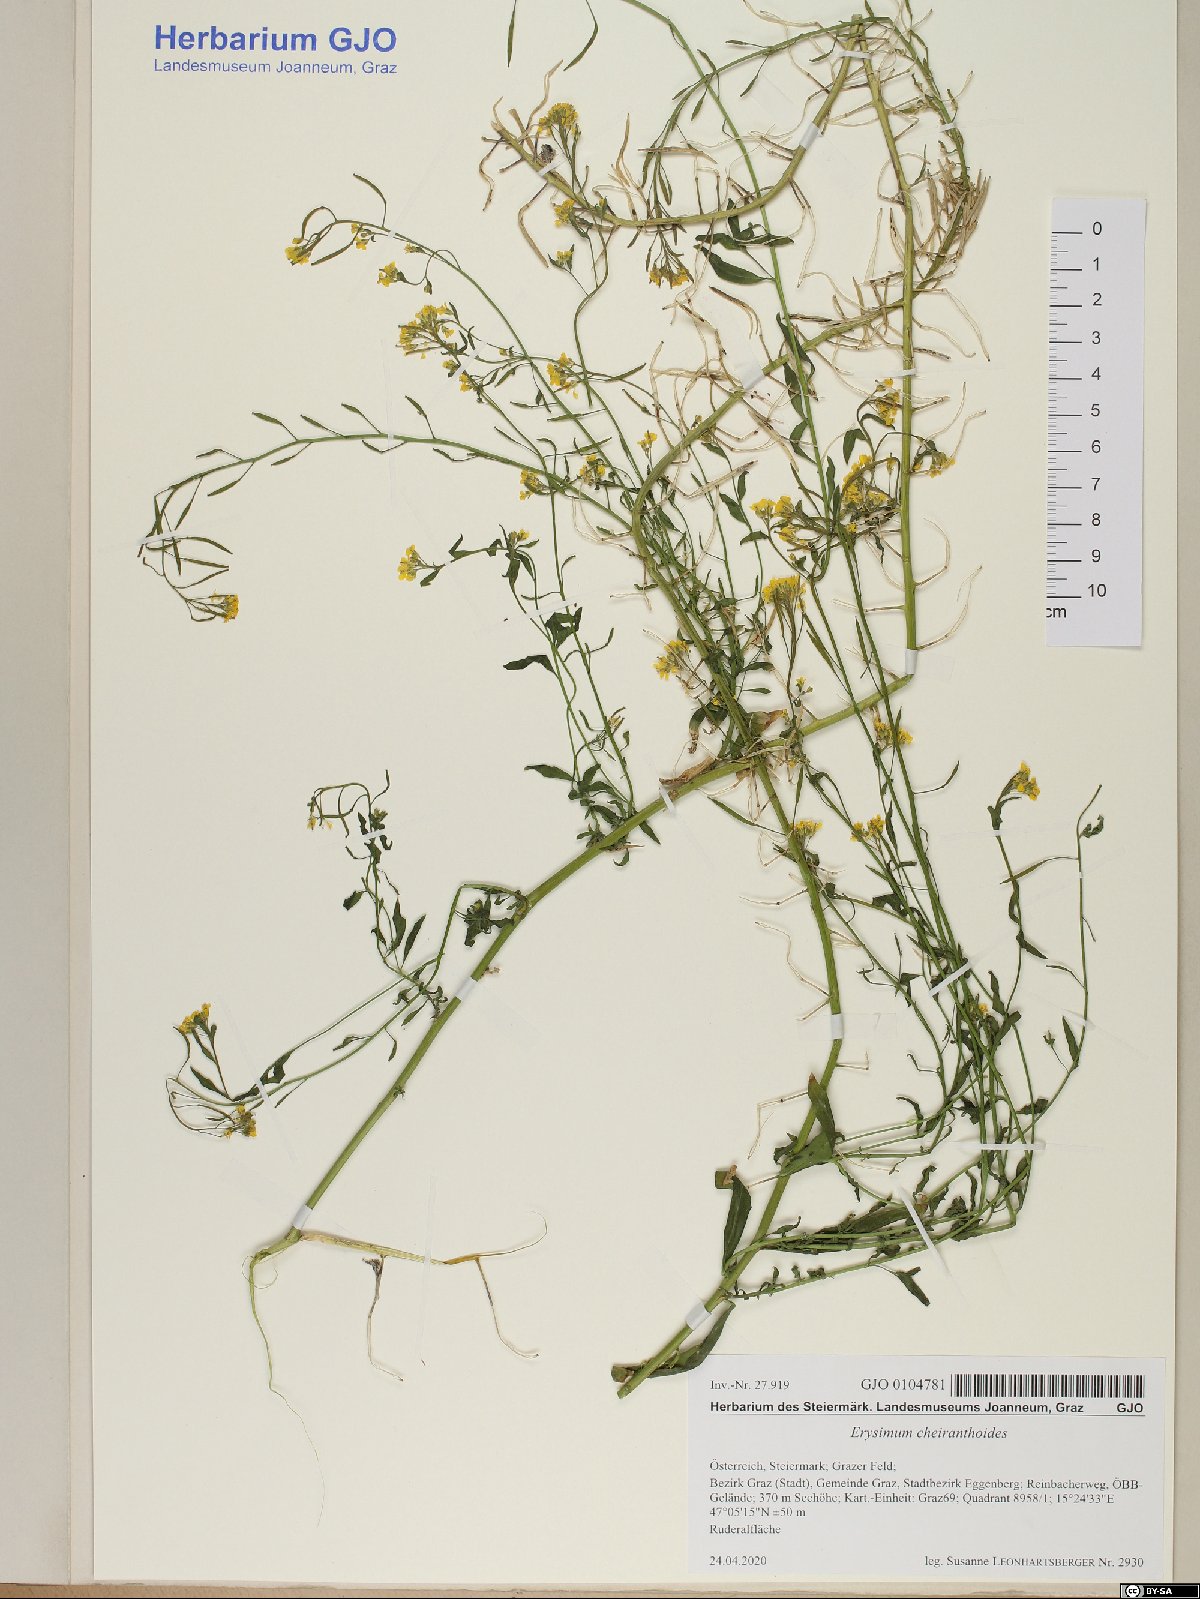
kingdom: Plantae
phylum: Tracheophyta
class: Magnoliopsida
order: Brassicales
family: Brassicaceae
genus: Erysimum
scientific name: Erysimum cheiranthoides
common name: Treacle mustard
